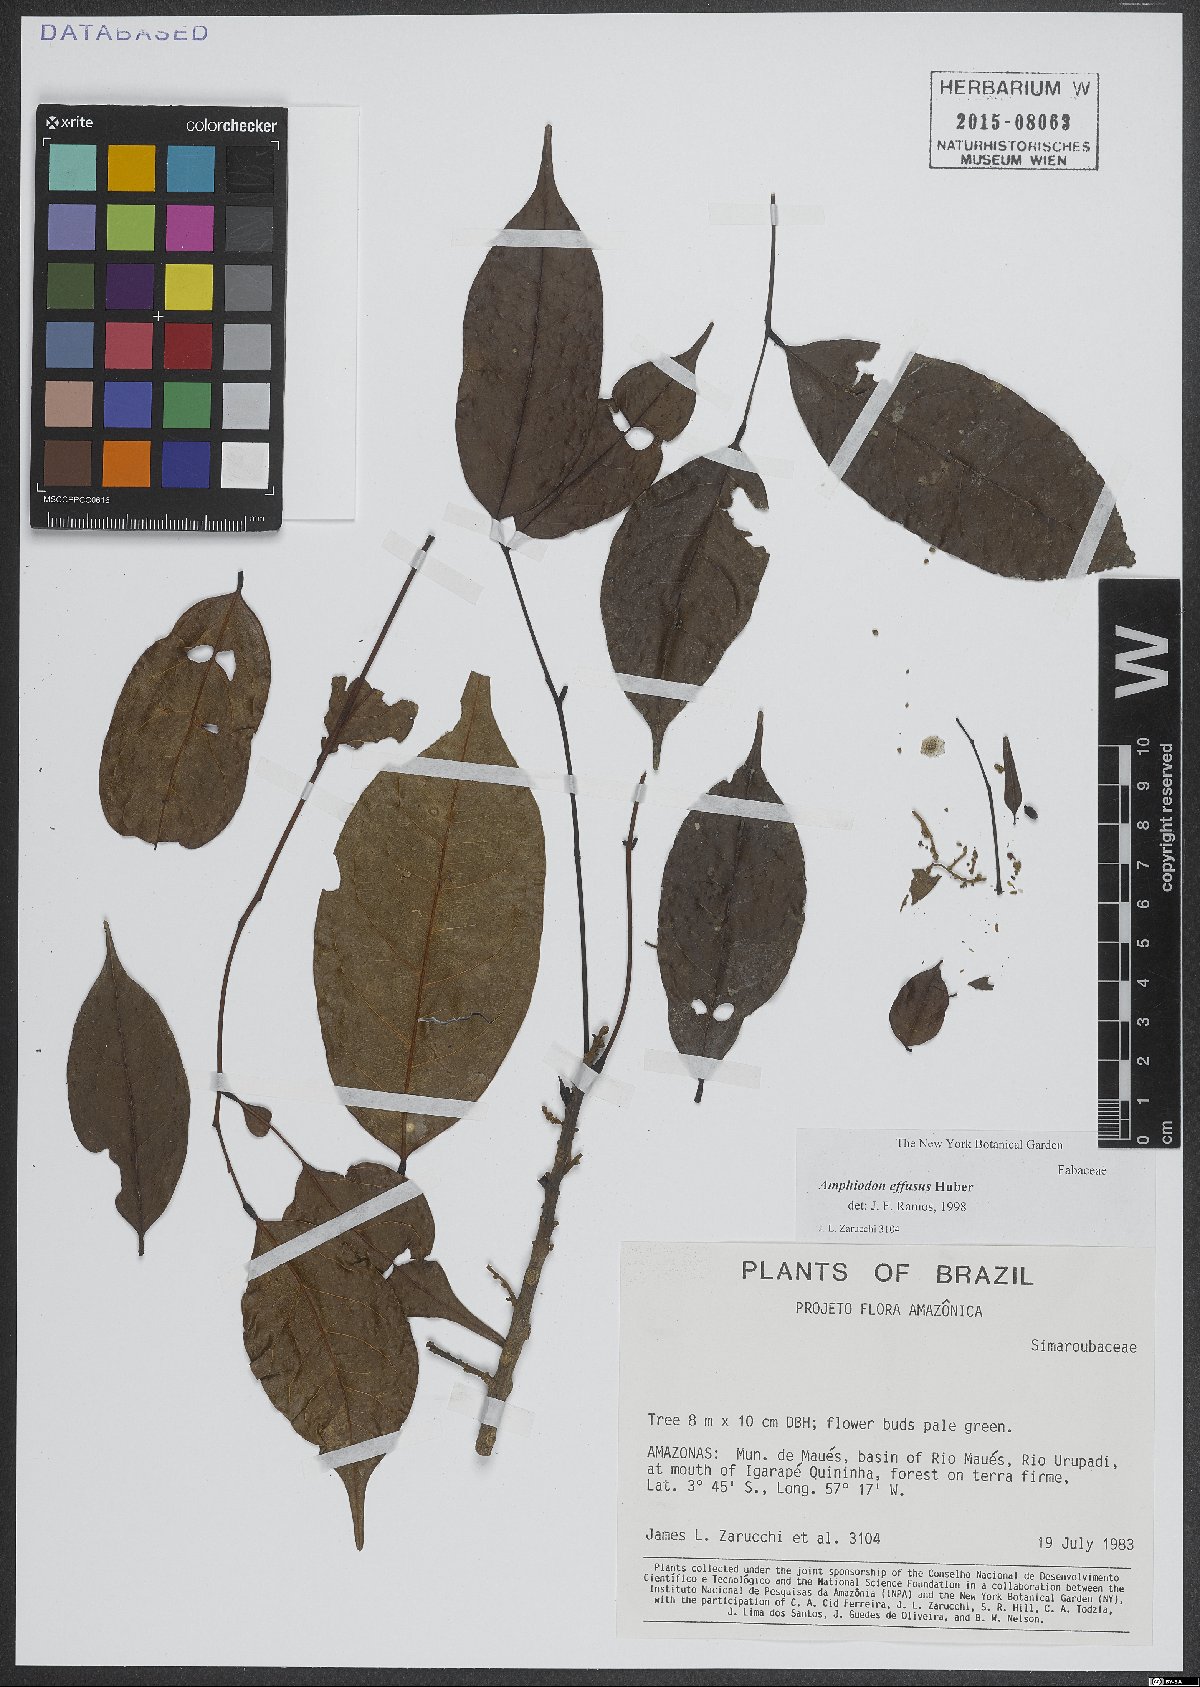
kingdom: Plantae
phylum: Tracheophyta
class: Magnoliopsida
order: Fabales
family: Fabaceae
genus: Amphiodon
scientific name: Amphiodon effusus
